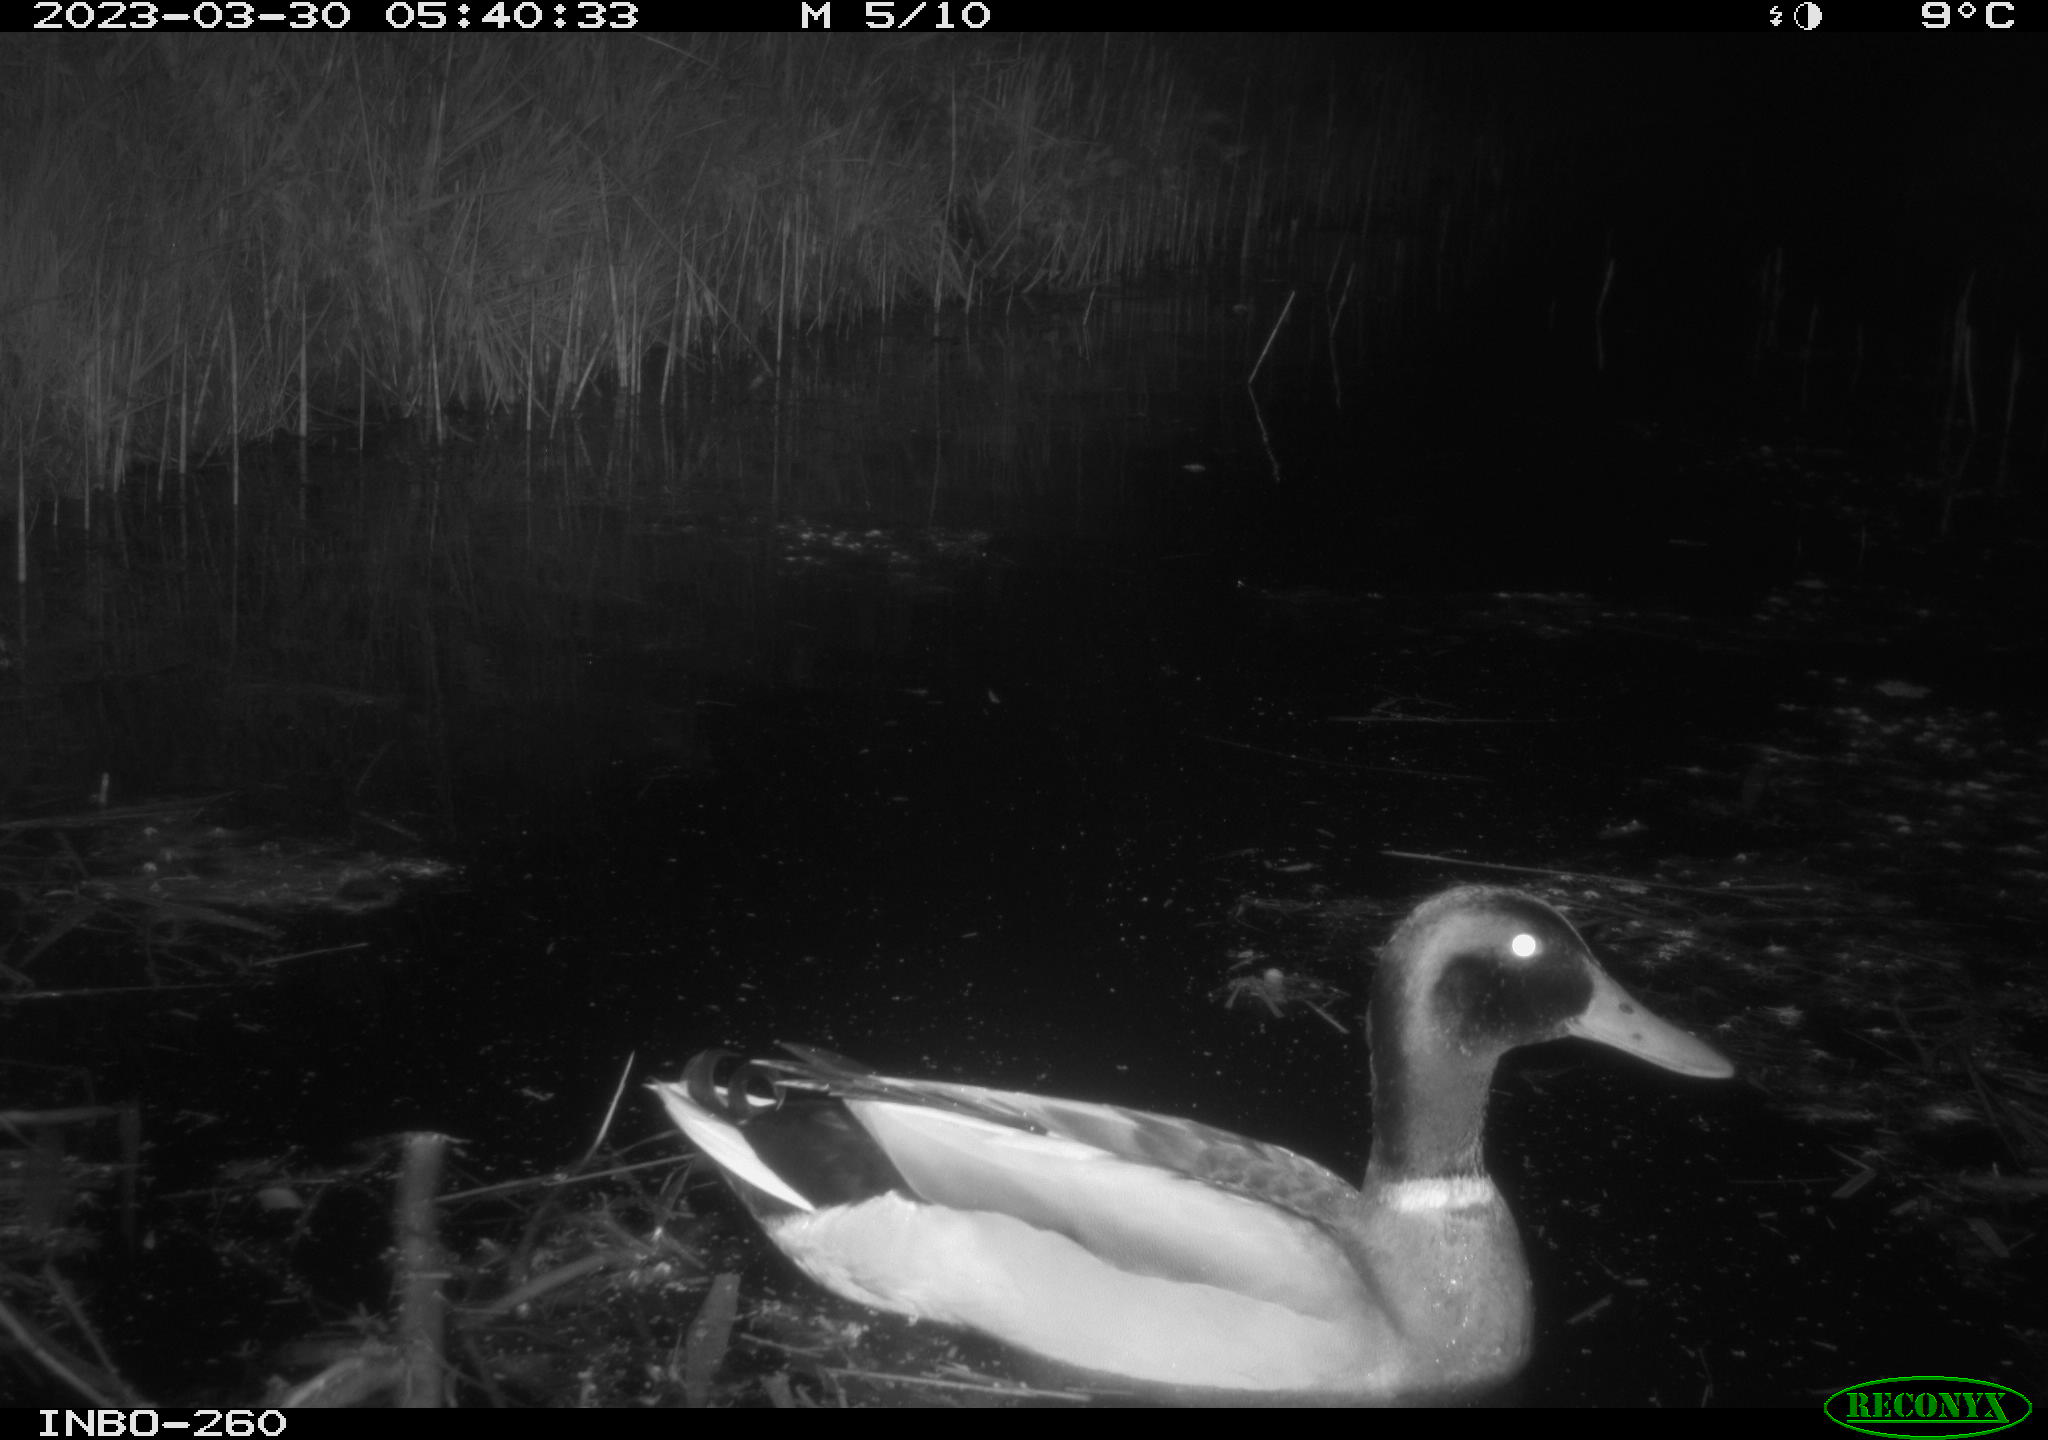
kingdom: Animalia
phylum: Chordata
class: Aves
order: Anseriformes
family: Anatidae
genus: Anas
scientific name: Anas
